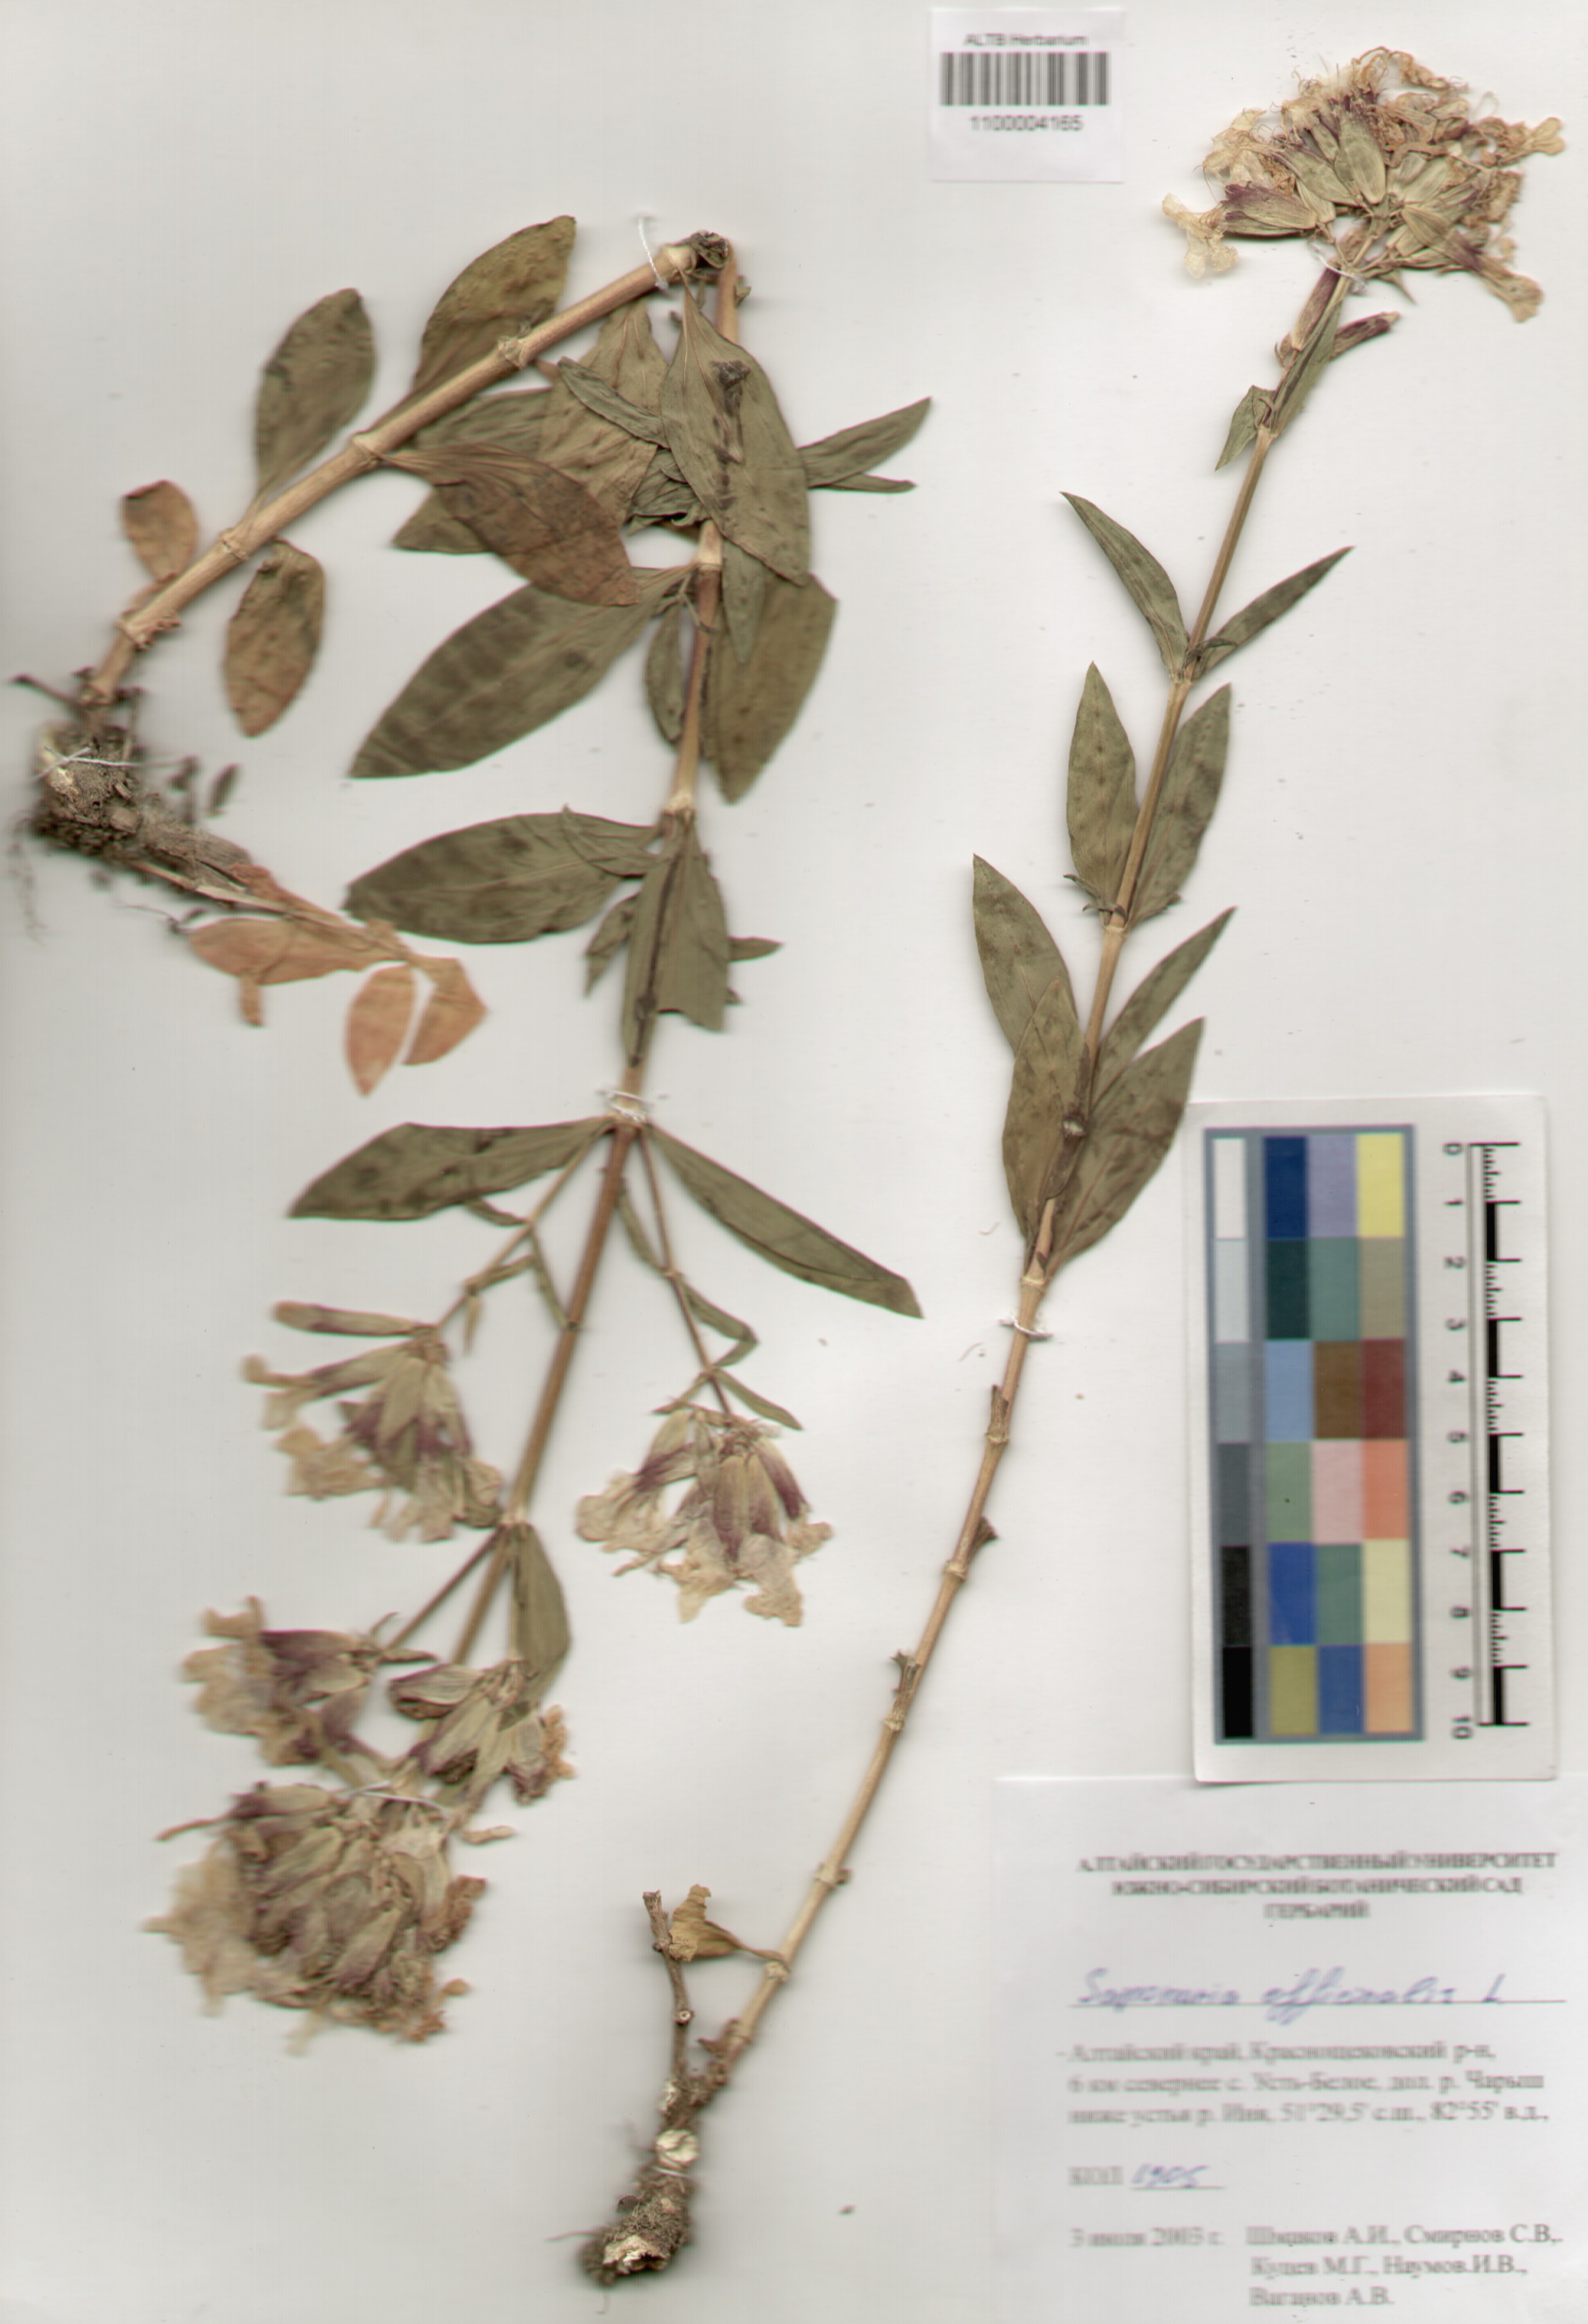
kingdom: Plantae
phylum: Tracheophyta
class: Magnoliopsida
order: Caryophyllales
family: Caryophyllaceae
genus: Saponaria
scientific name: Saponaria officinalis
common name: Soapwort
